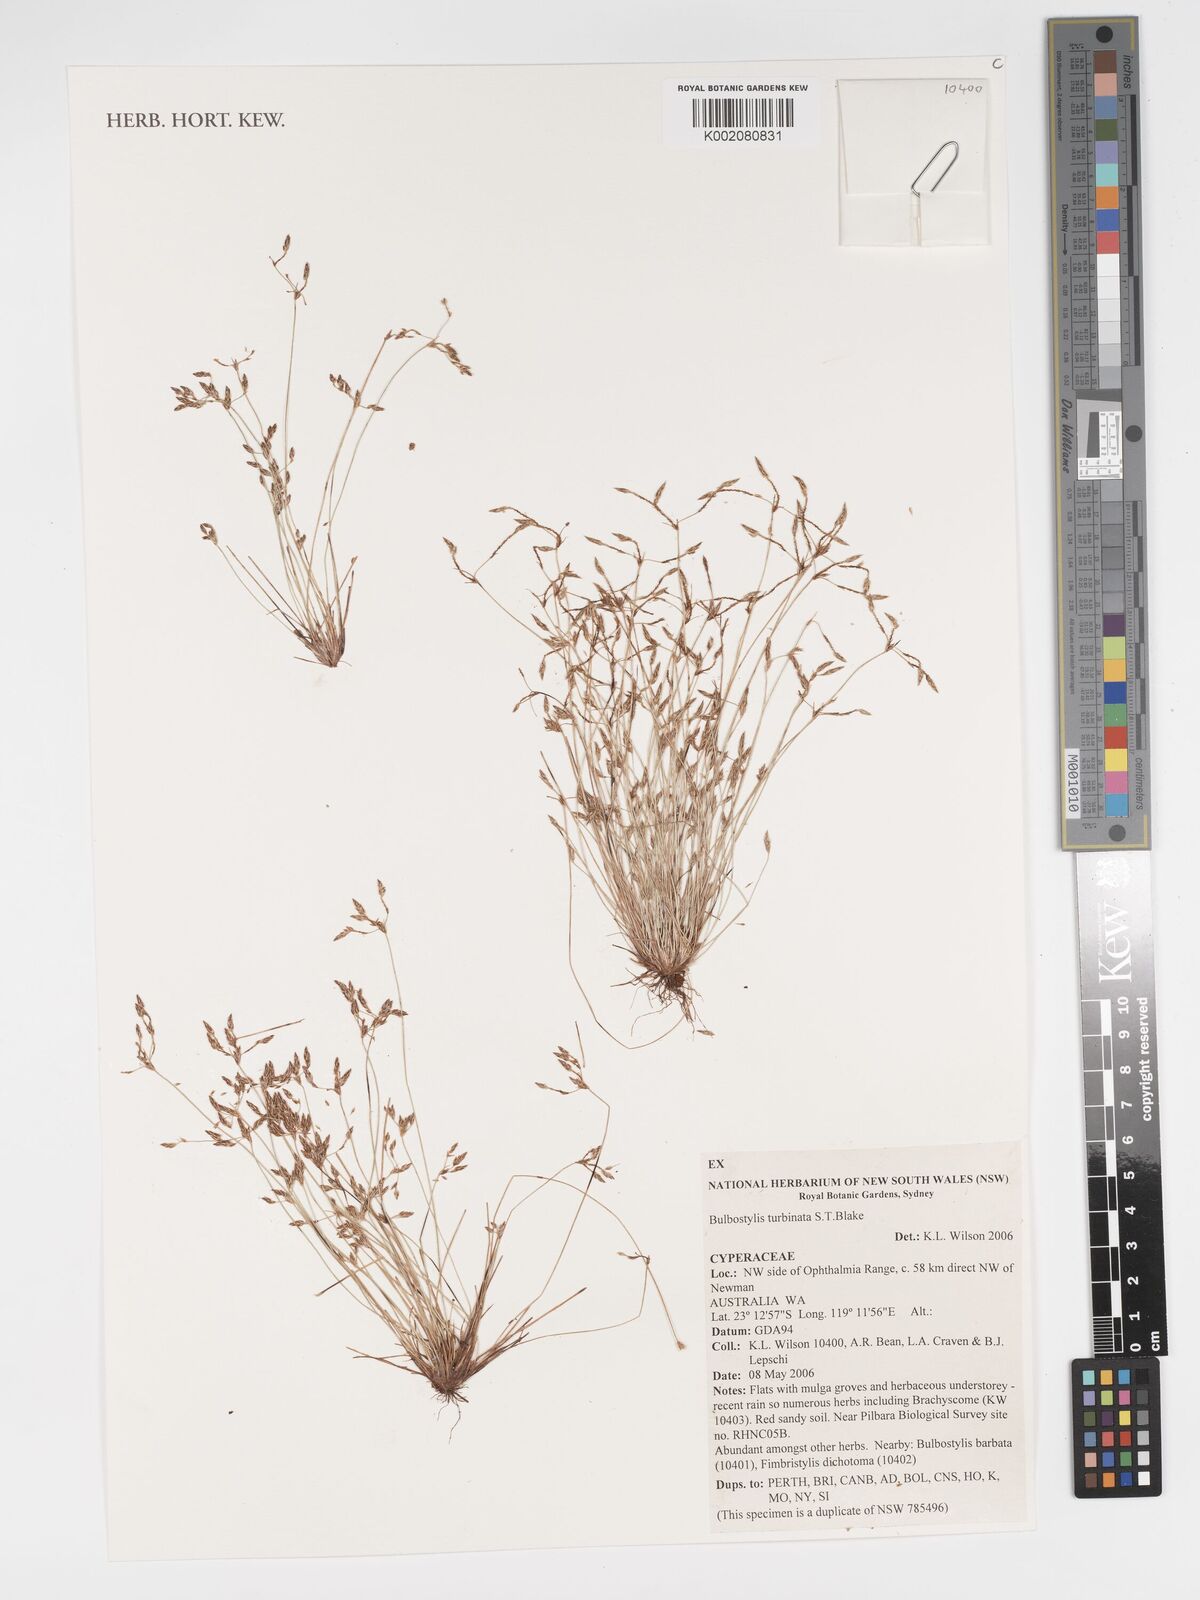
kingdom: Plantae
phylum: Tracheophyta
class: Liliopsida
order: Poales
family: Cyperaceae
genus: Bulbostylis
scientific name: Bulbostylis turbinata
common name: Hair sedge
